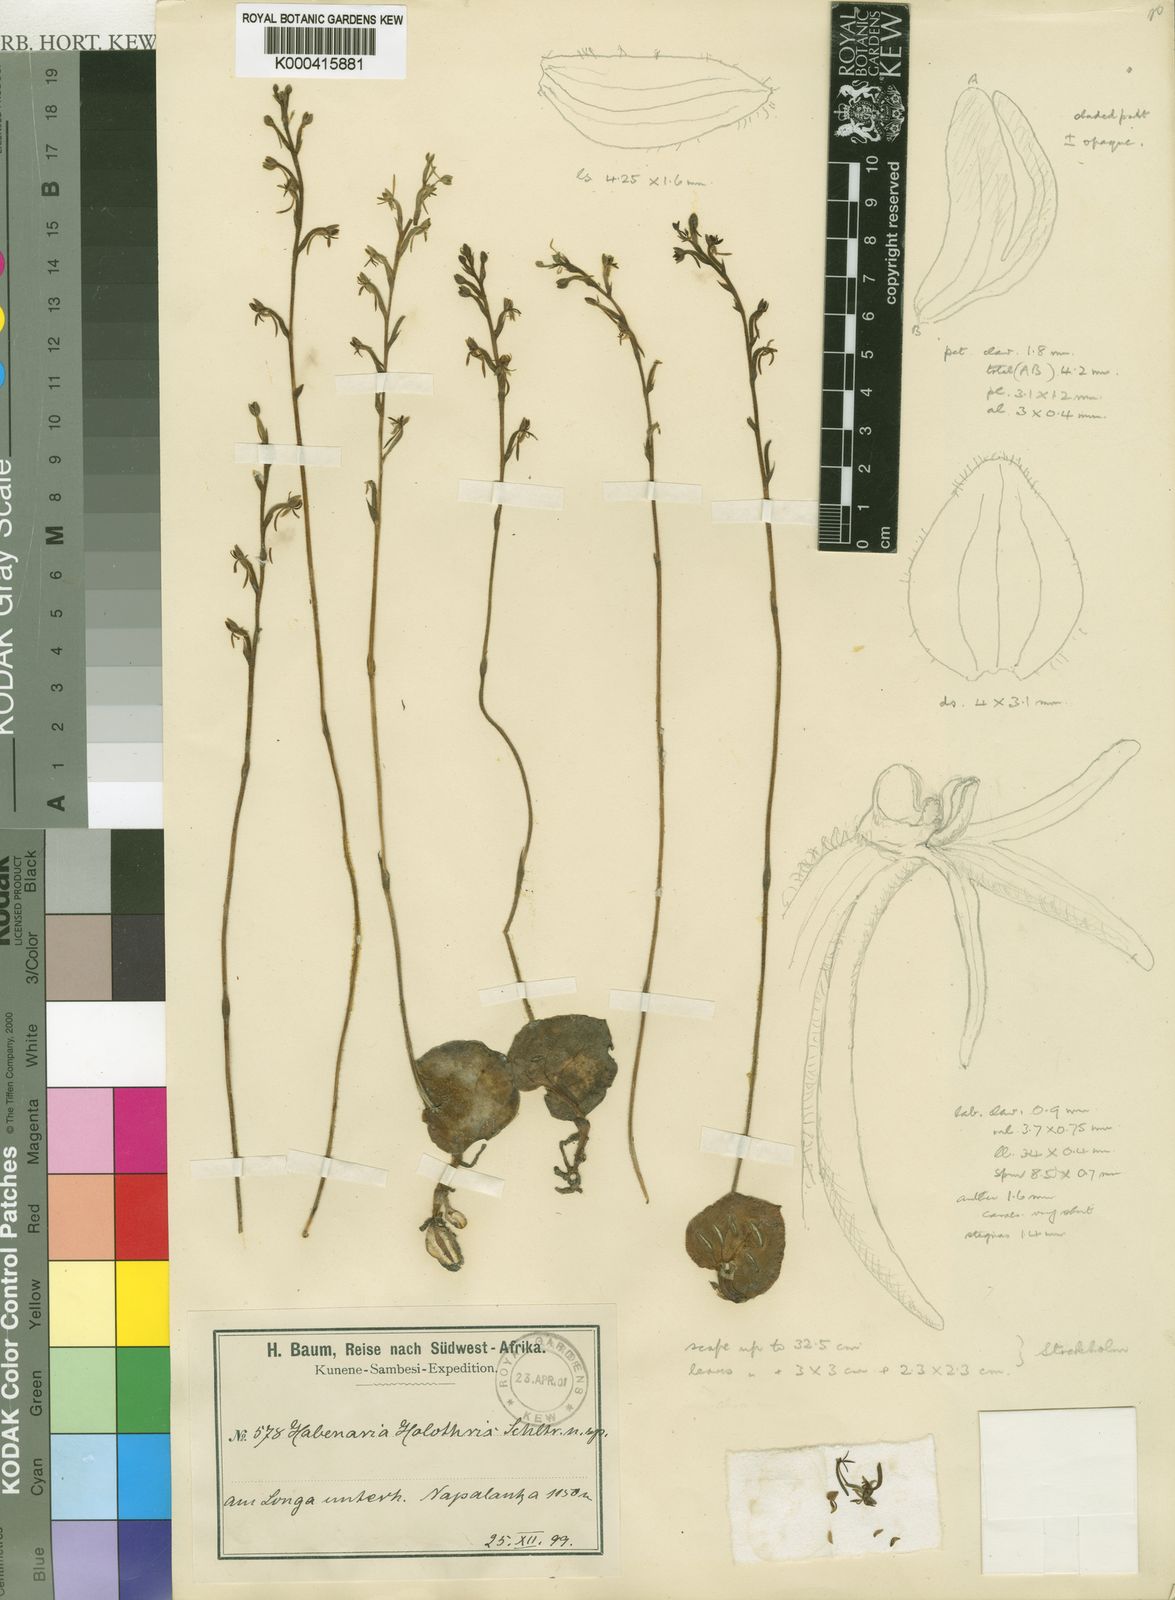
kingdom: Plantae
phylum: Tracheophyta
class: Liliopsida
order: Asparagales
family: Orchidaceae
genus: Habenaria
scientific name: Habenaria holothrix
